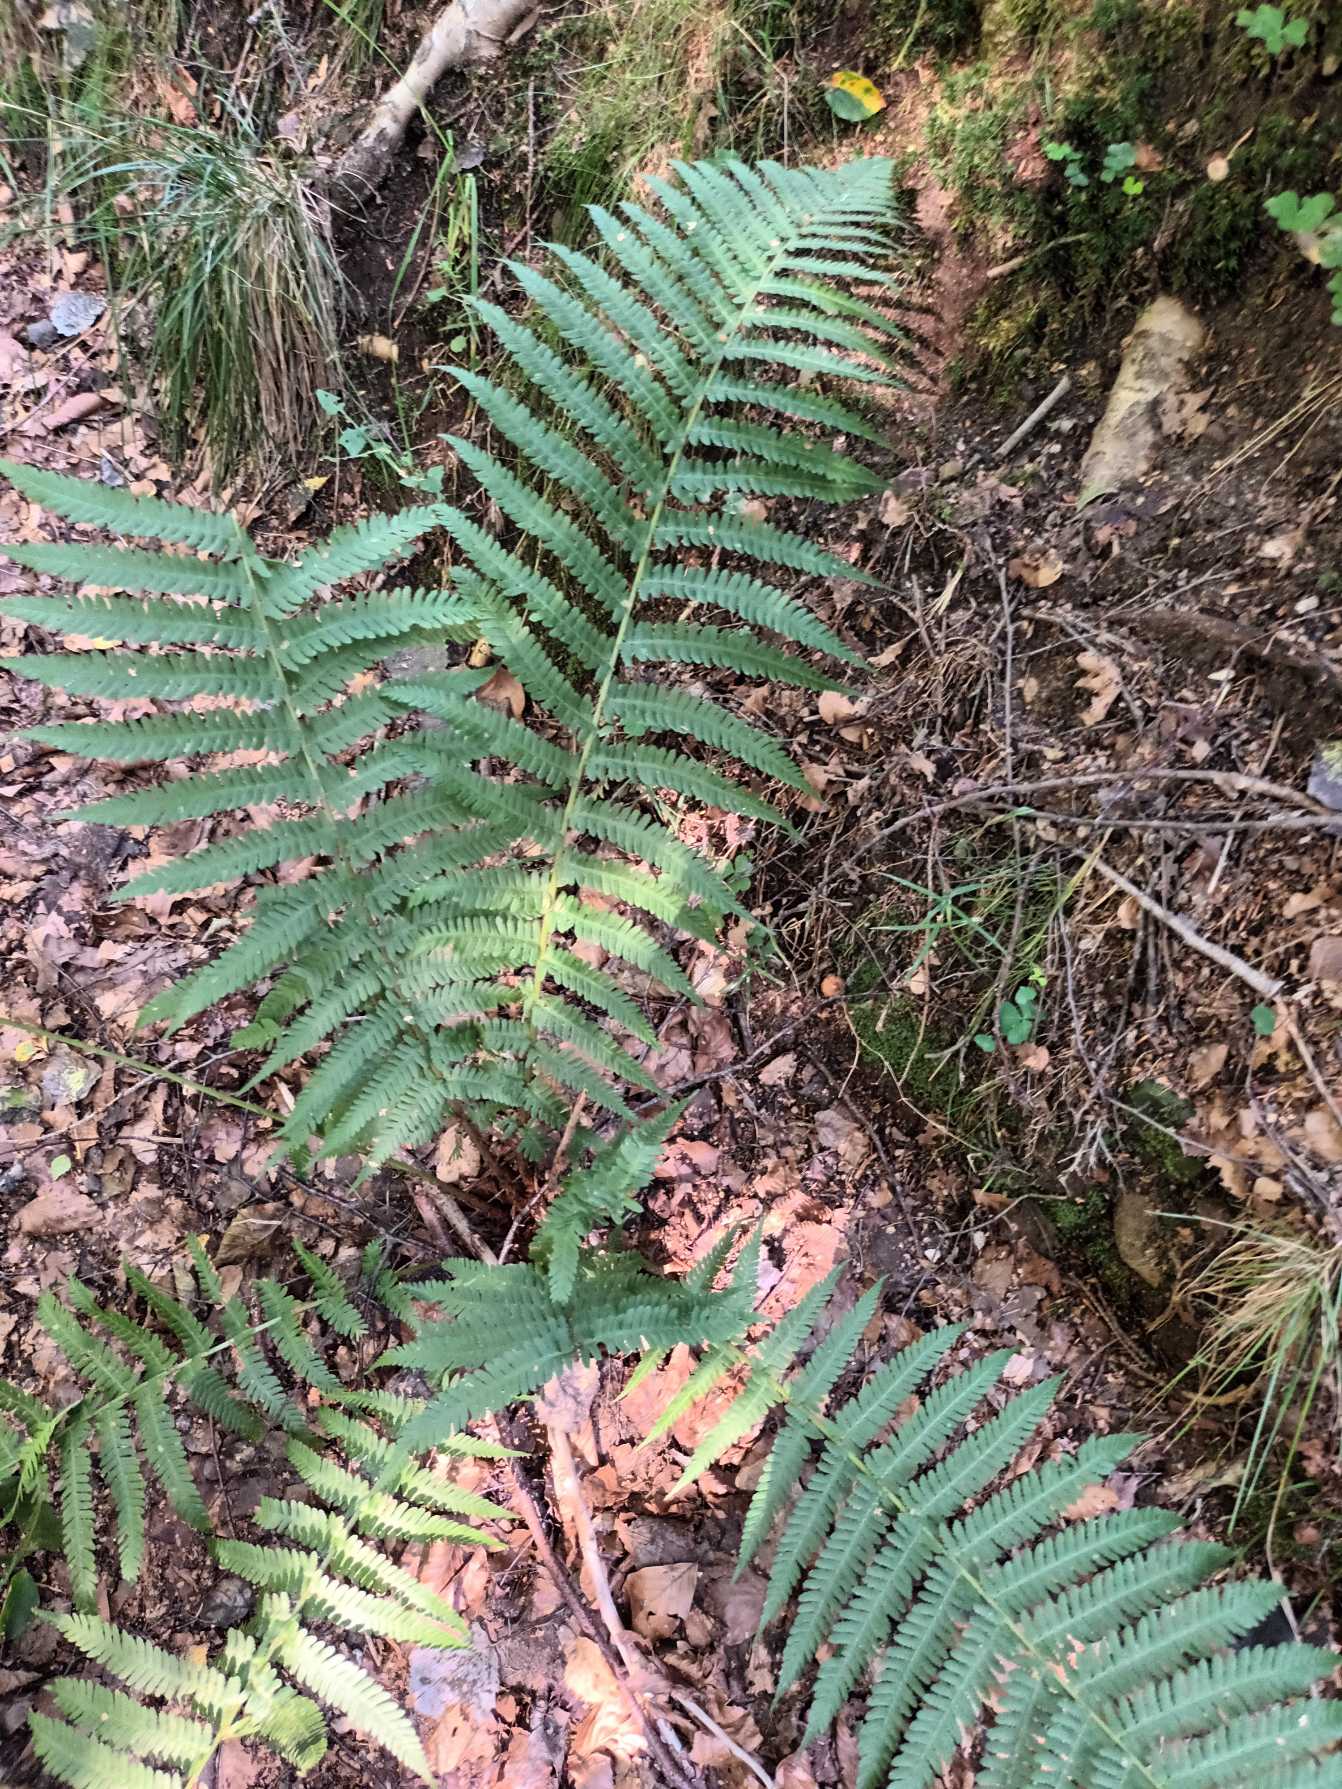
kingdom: Plantae
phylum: Tracheophyta
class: Polypodiopsida
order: Polypodiales
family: Dryopteridaceae
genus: Dryopteris
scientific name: Dryopteris filix-mas
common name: Almindelig mangeløv
